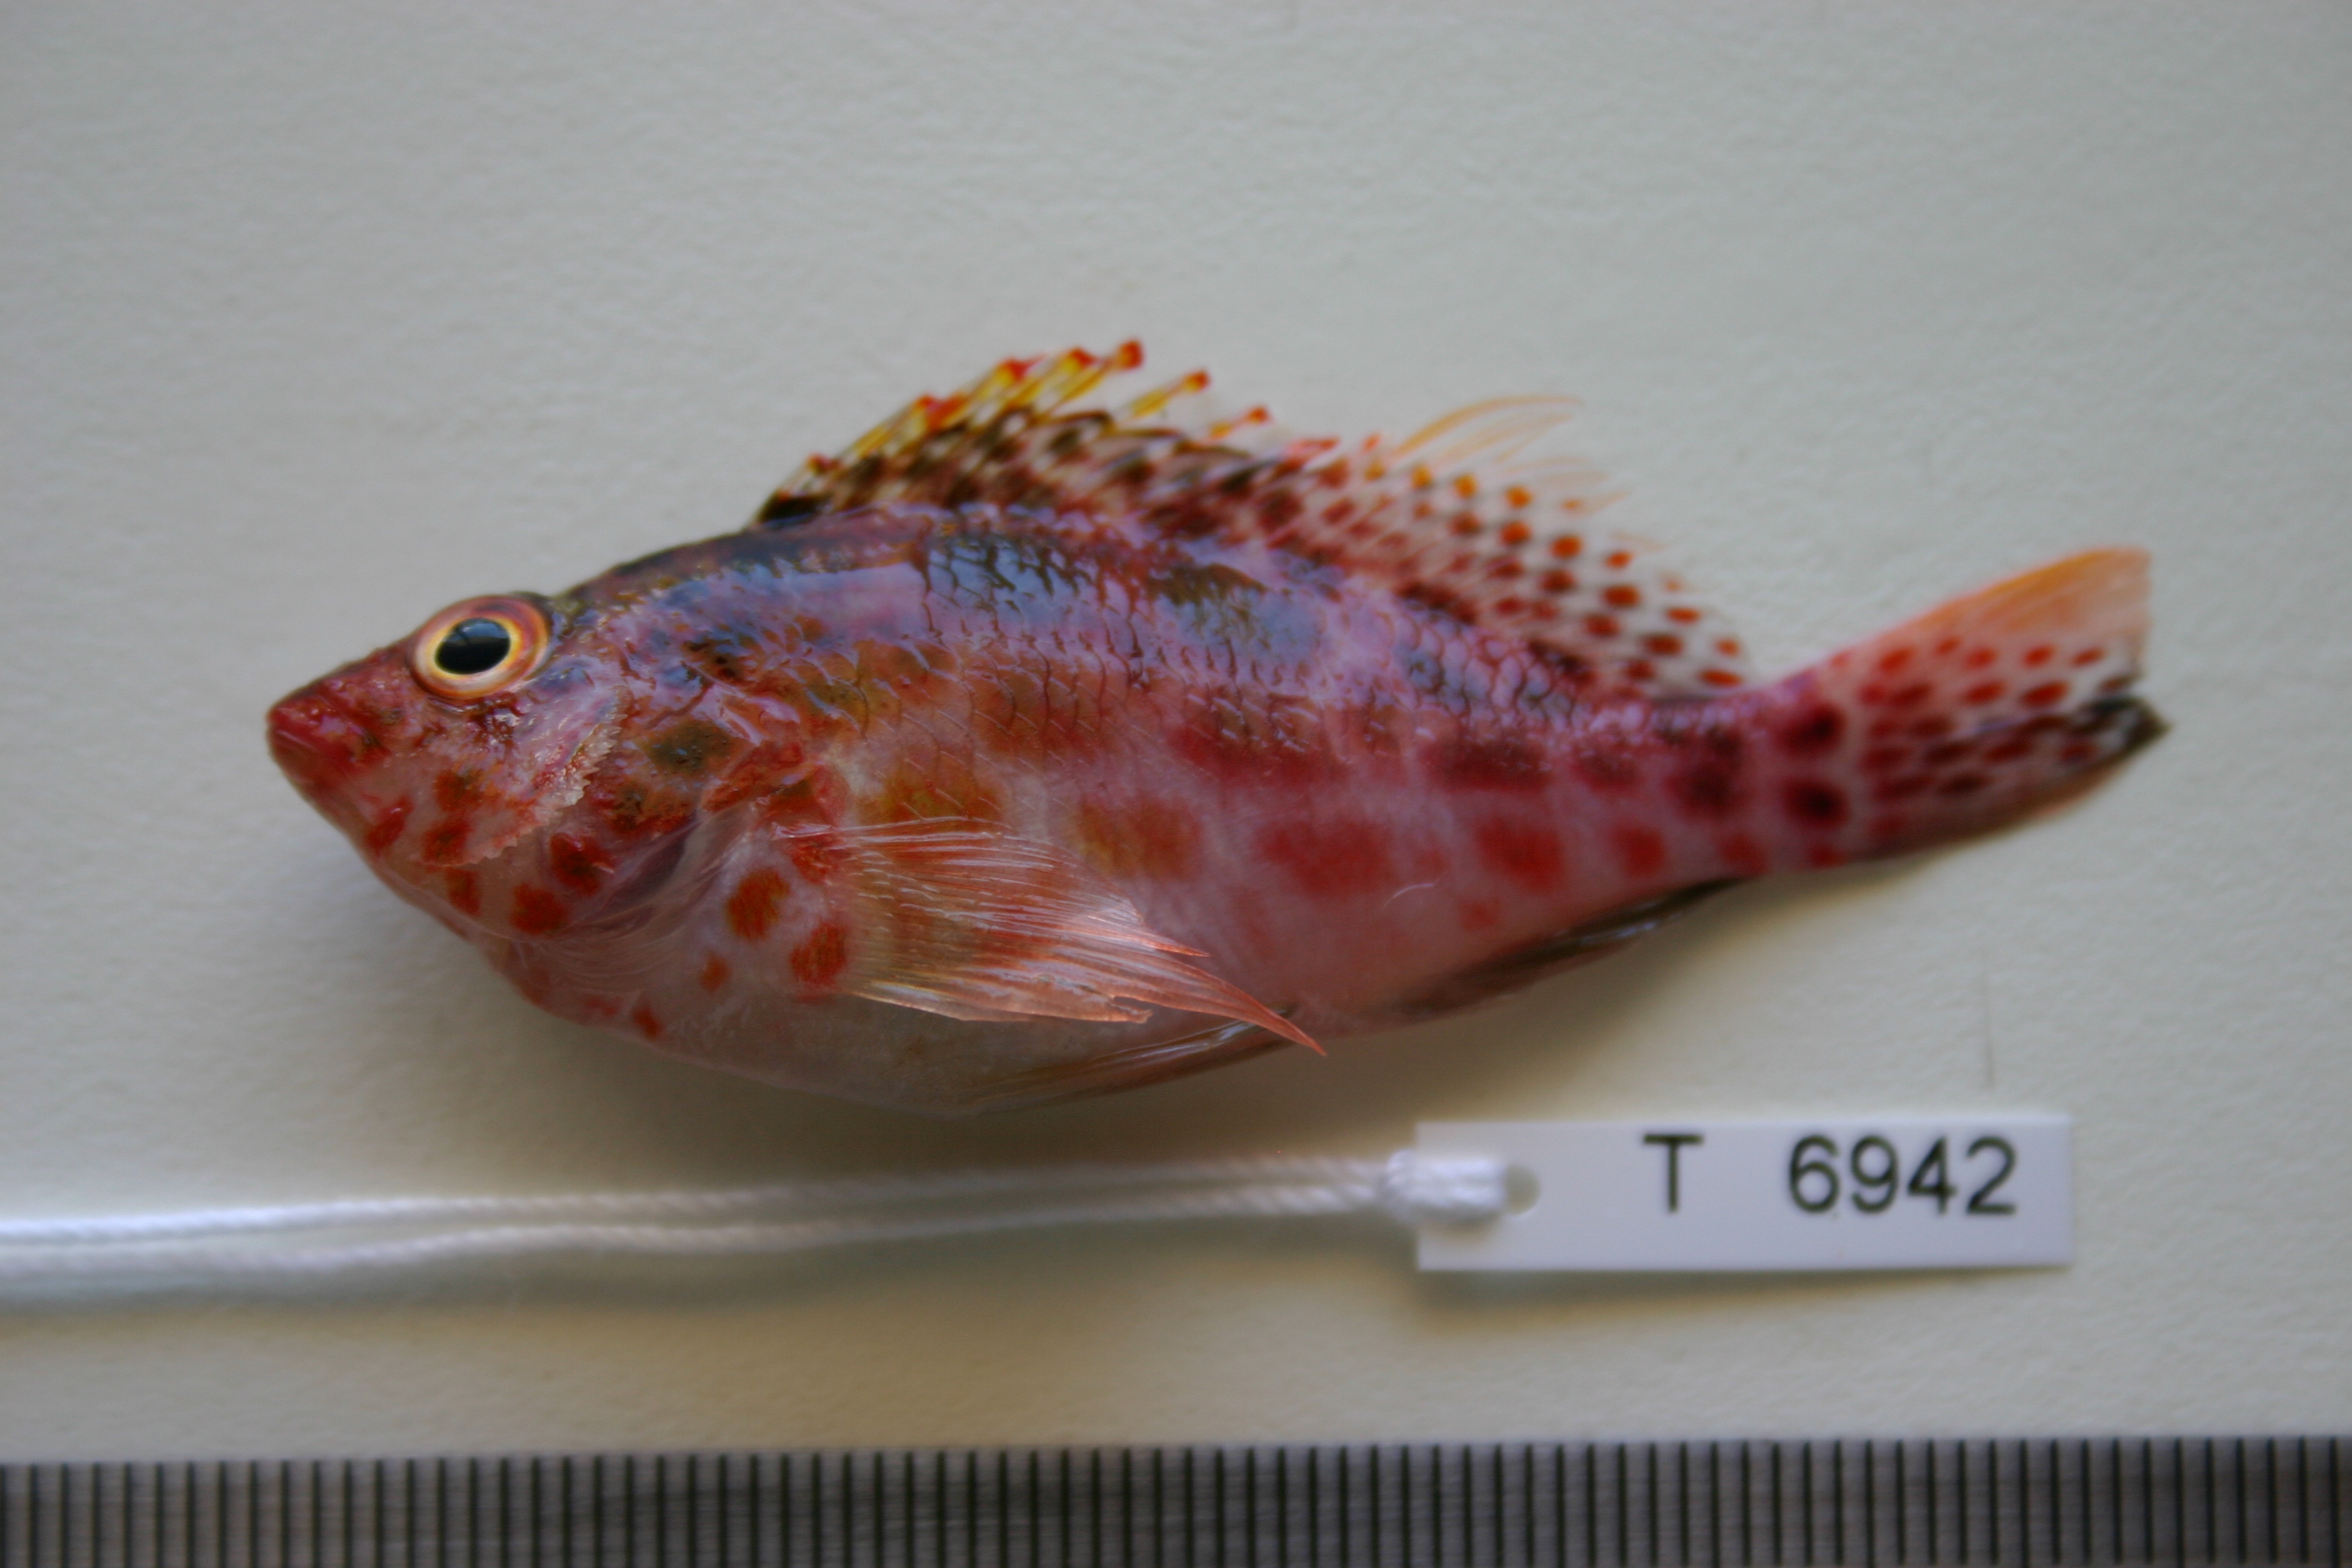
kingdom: Animalia
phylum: Chordata
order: Perciformes
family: Cirrhitidae
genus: Cirrhitichthys
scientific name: Cirrhitichthys oxycephalus
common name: Spotted hawkfish
